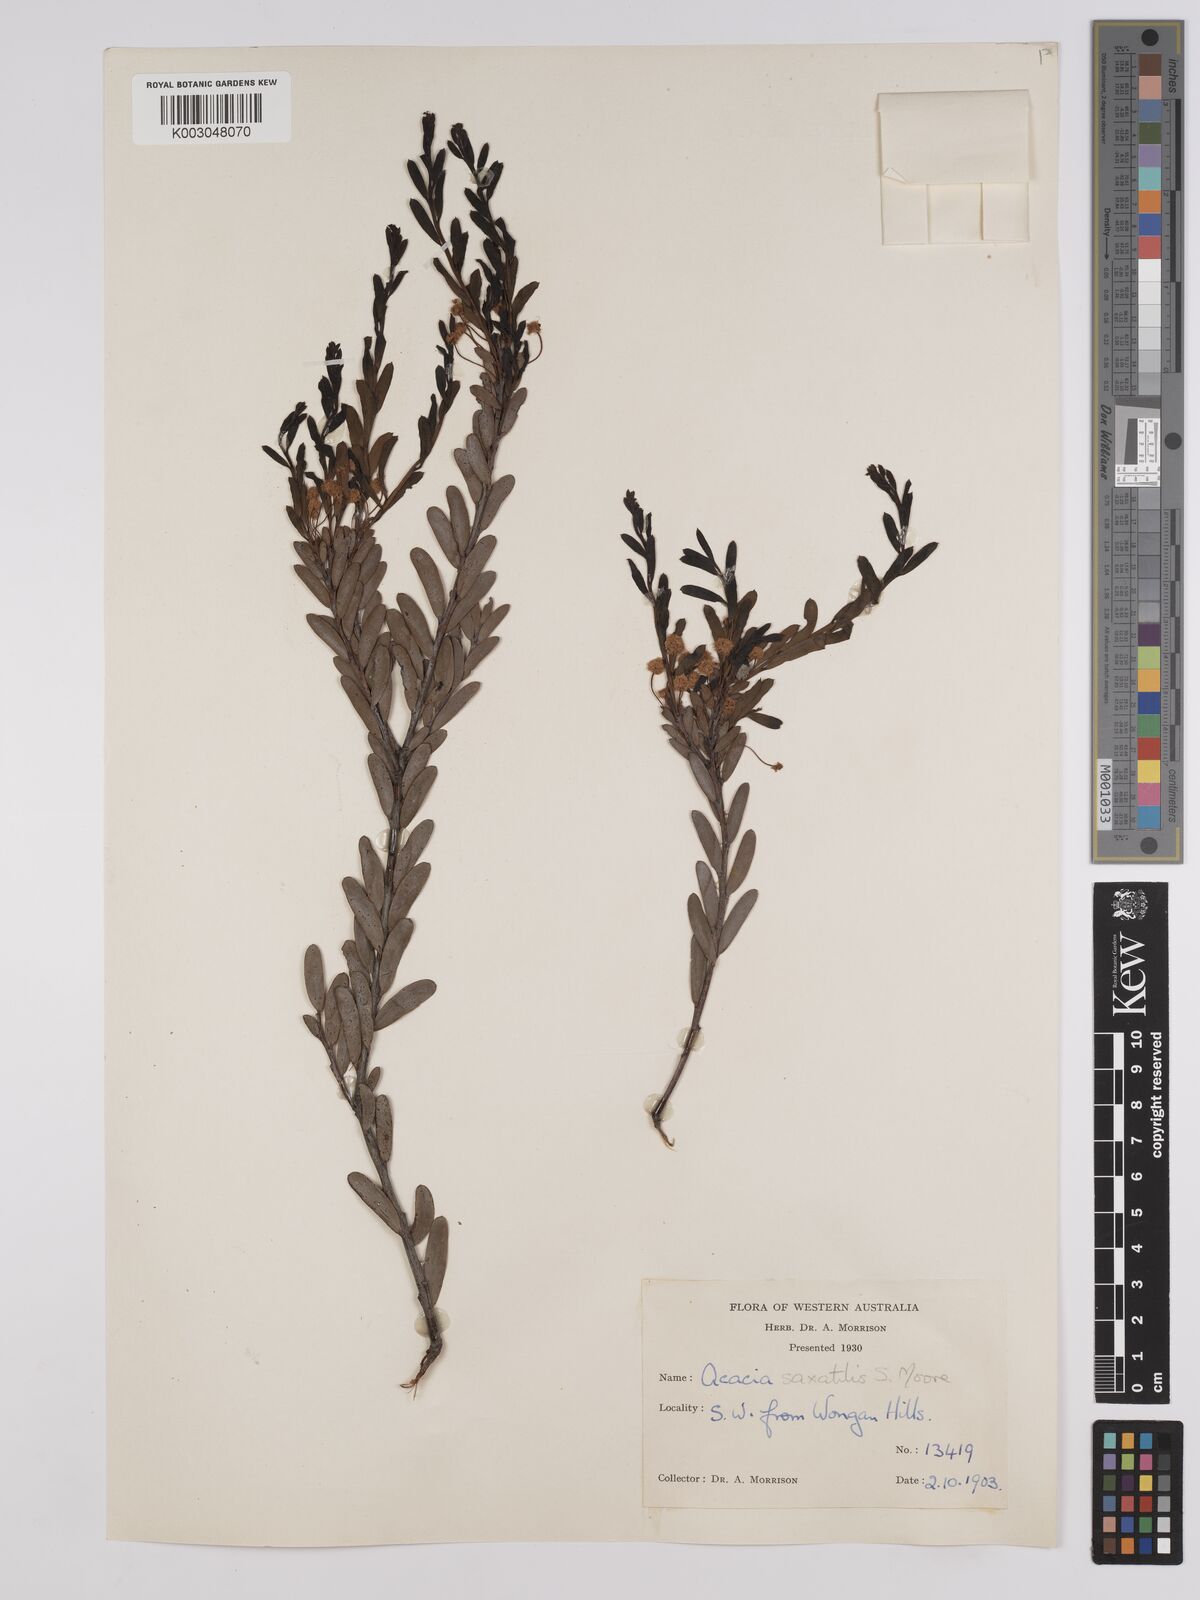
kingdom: Plantae
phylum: Tracheophyta
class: Magnoliopsida
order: Fabales
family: Fabaceae
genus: Acacia
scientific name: Acacia saxatilis
